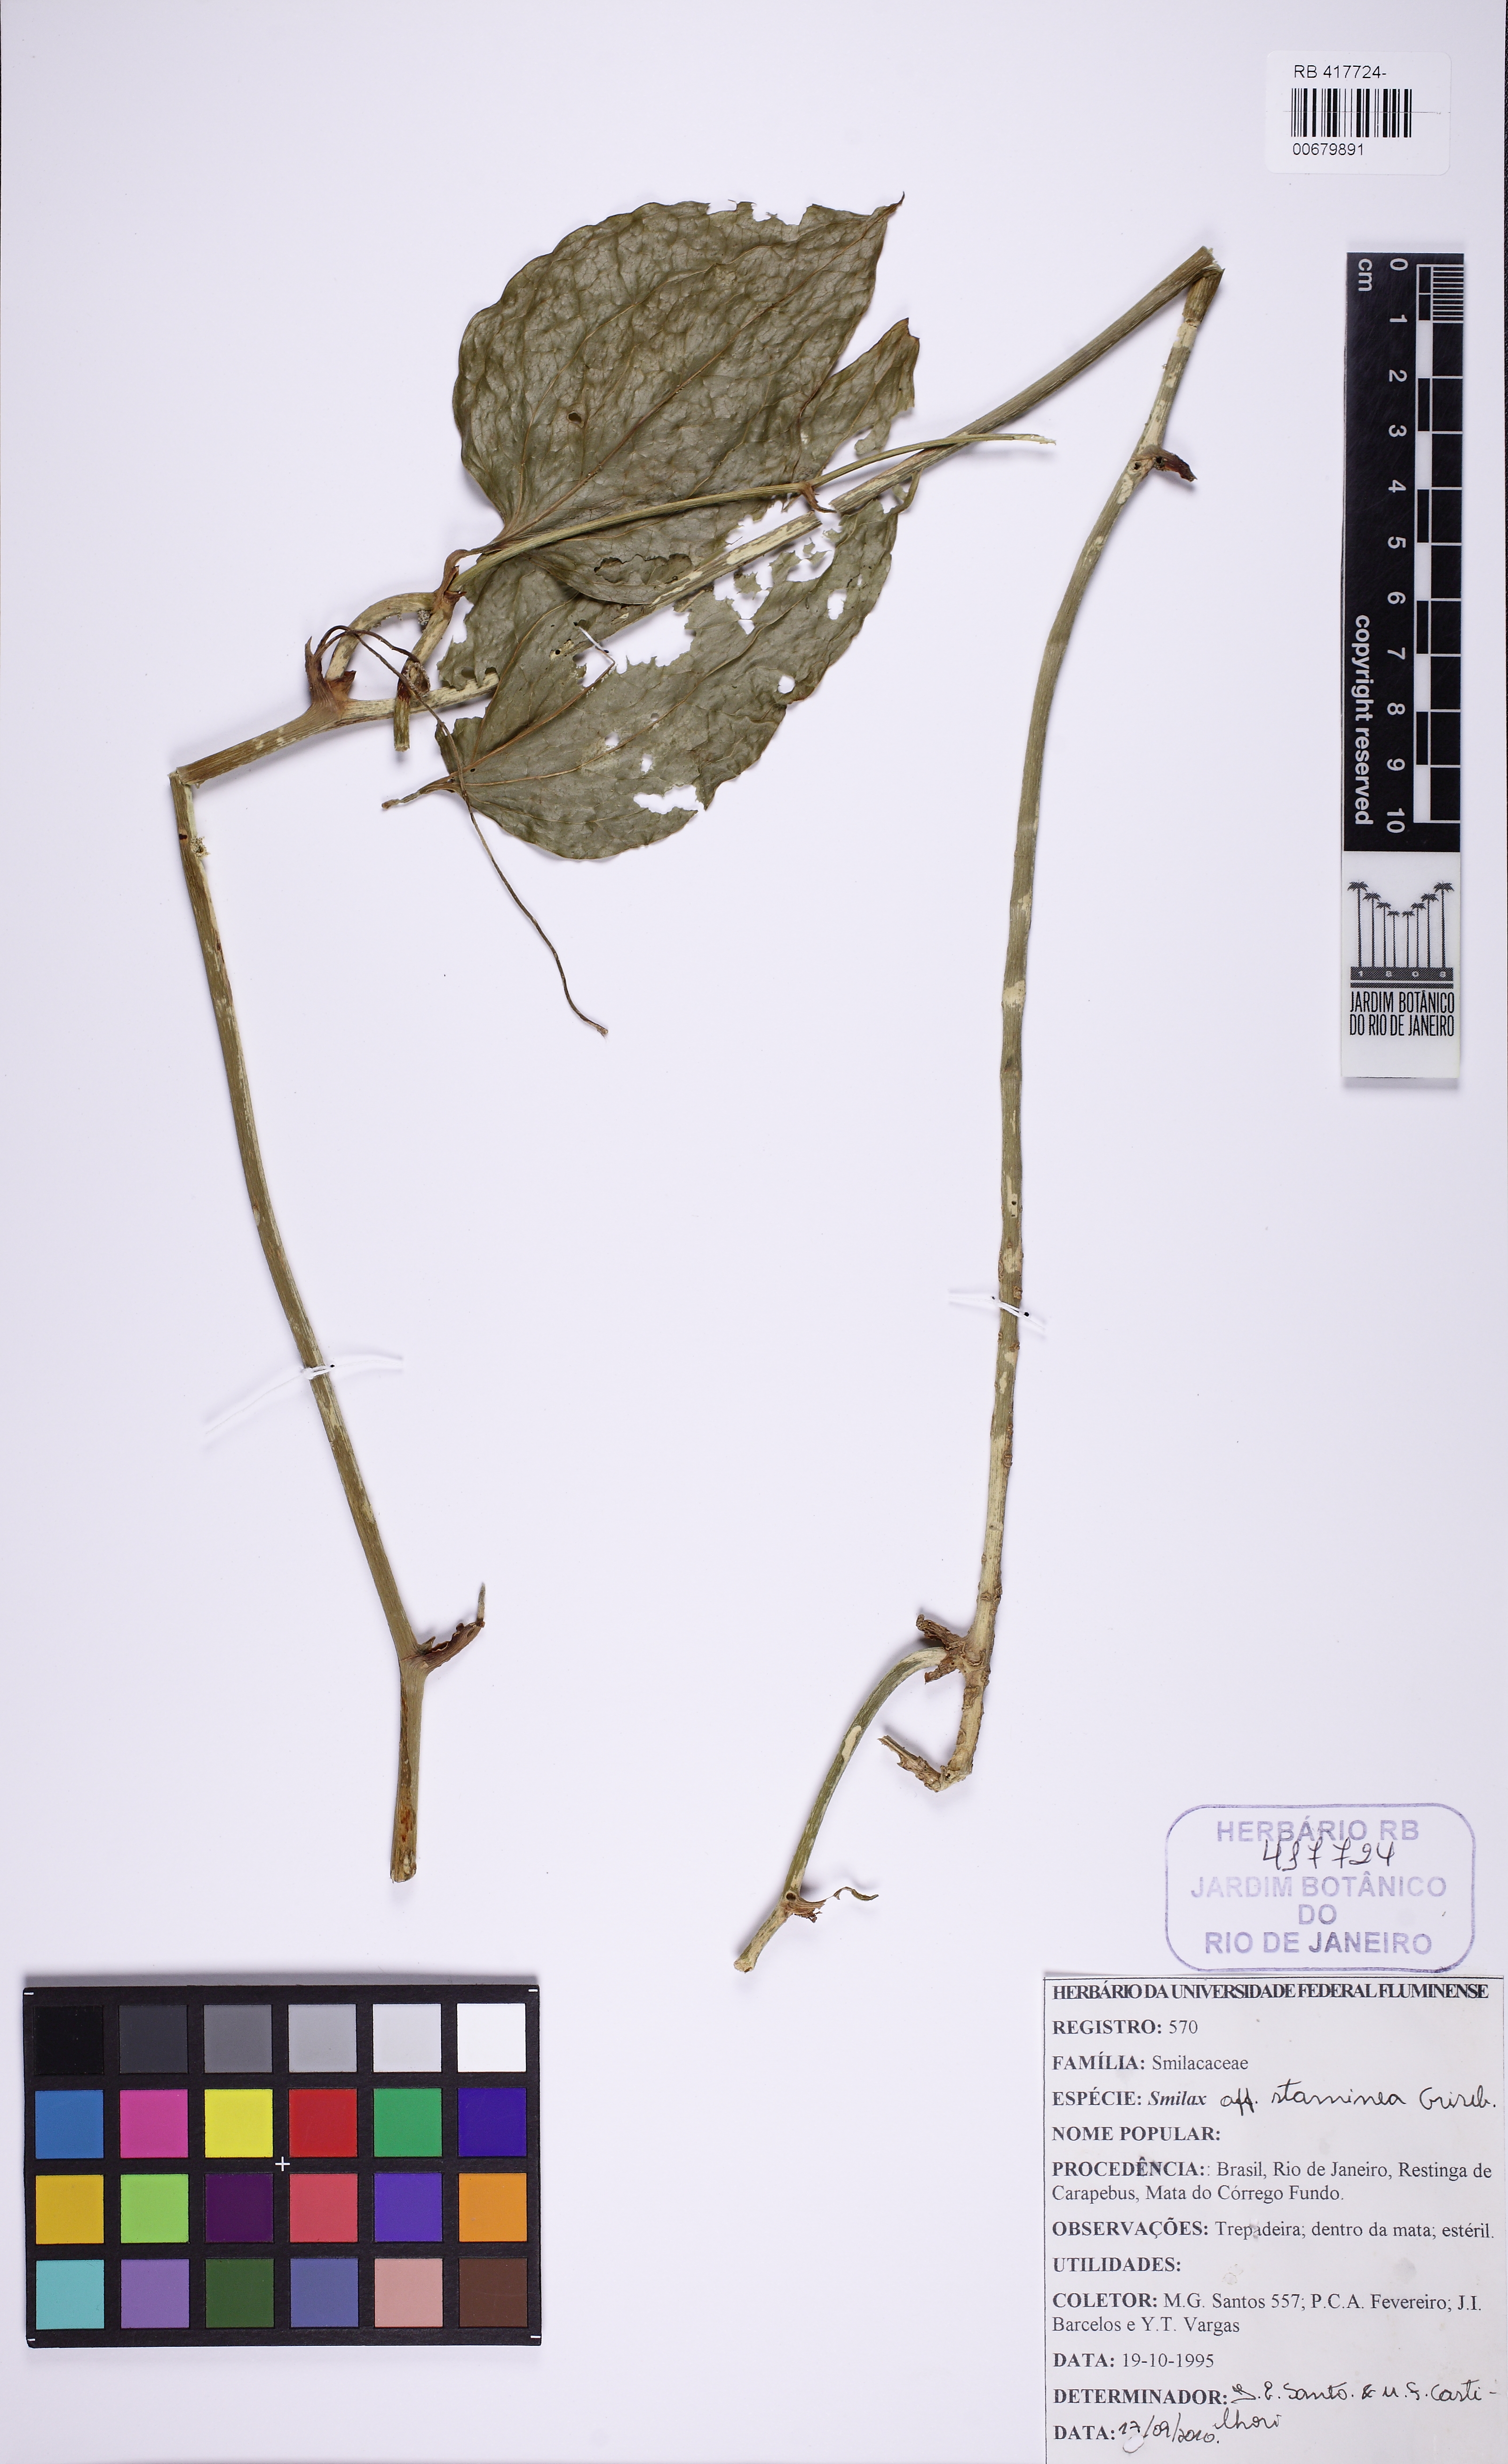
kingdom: Plantae
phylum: Tracheophyta
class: Liliopsida
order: Liliales
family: Smilacaceae
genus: Smilax
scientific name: Smilax domingensis
